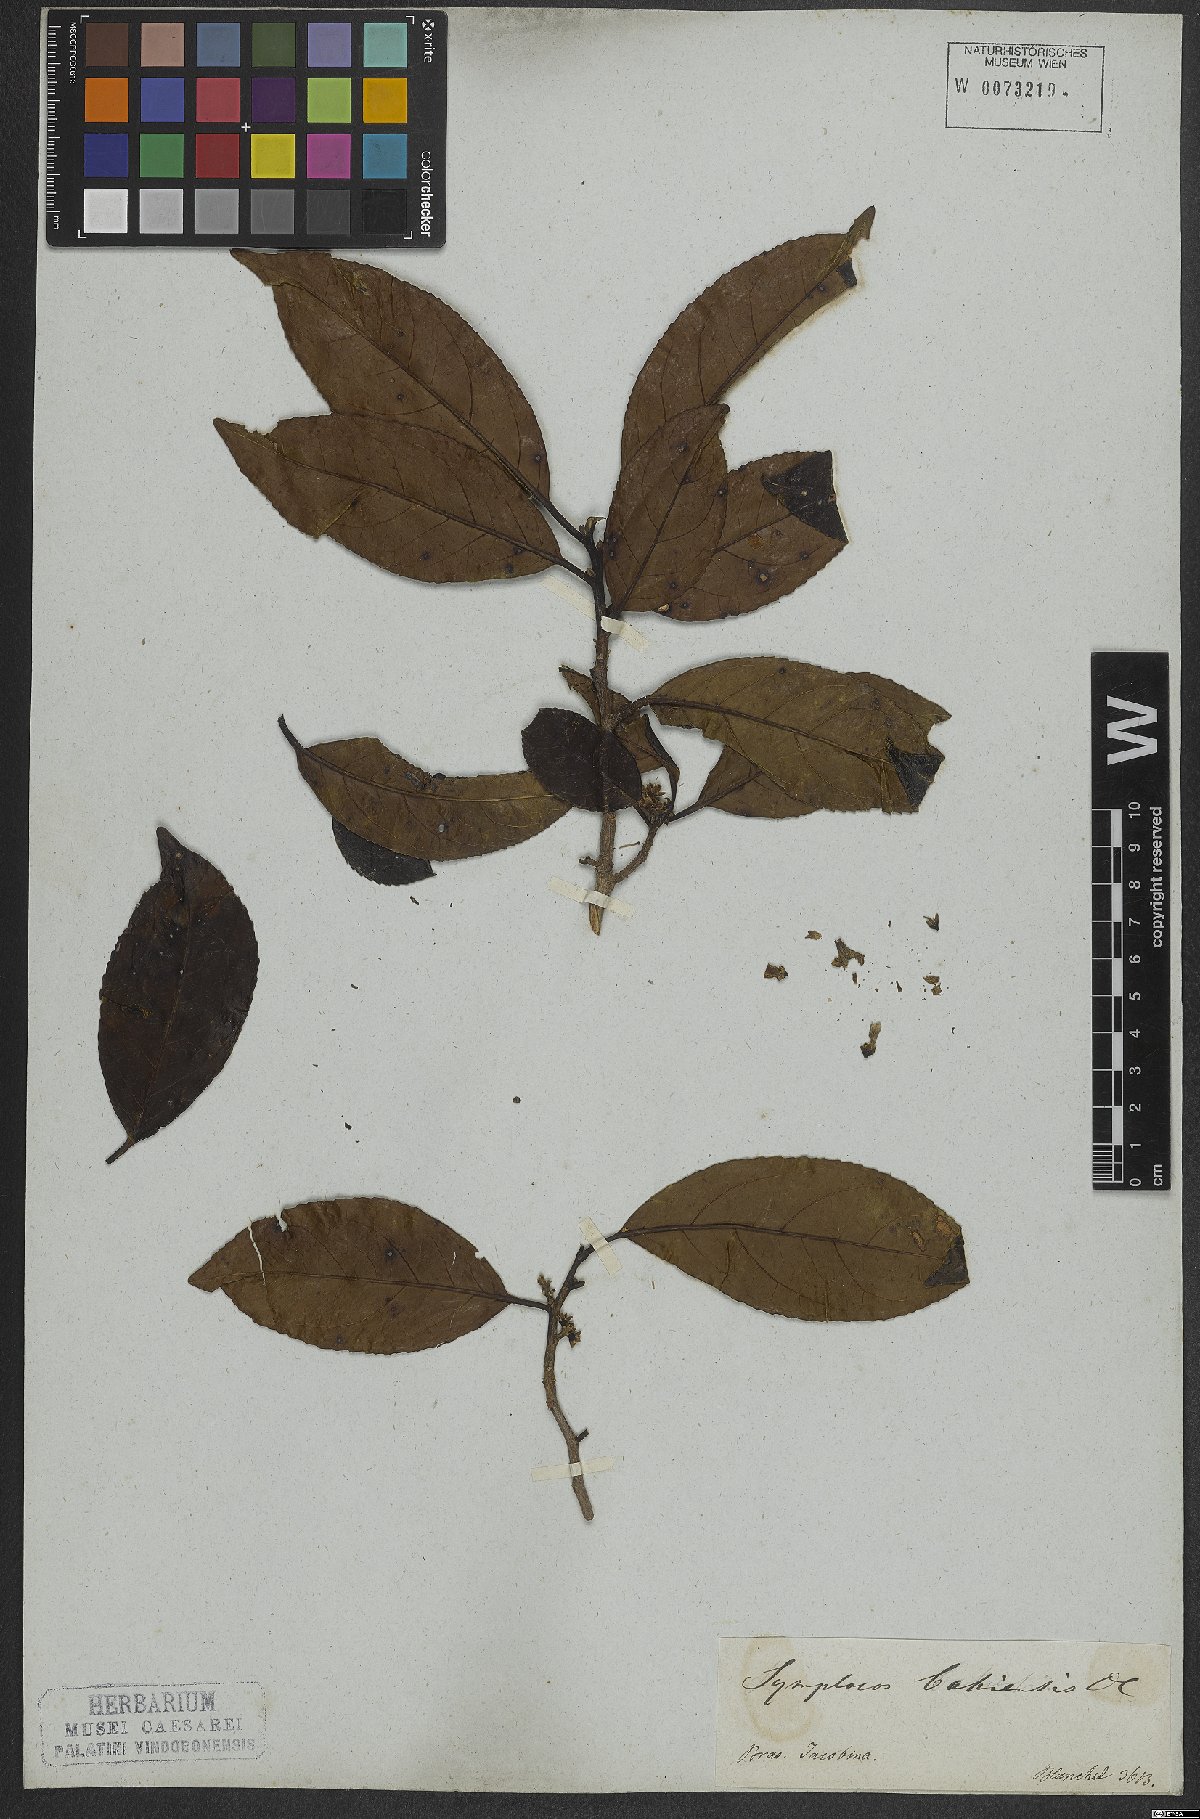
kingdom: Plantae
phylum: Tracheophyta
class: Magnoliopsida
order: Ericales
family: Symplocaceae
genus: Symplocos
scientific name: Symplocos nitens
